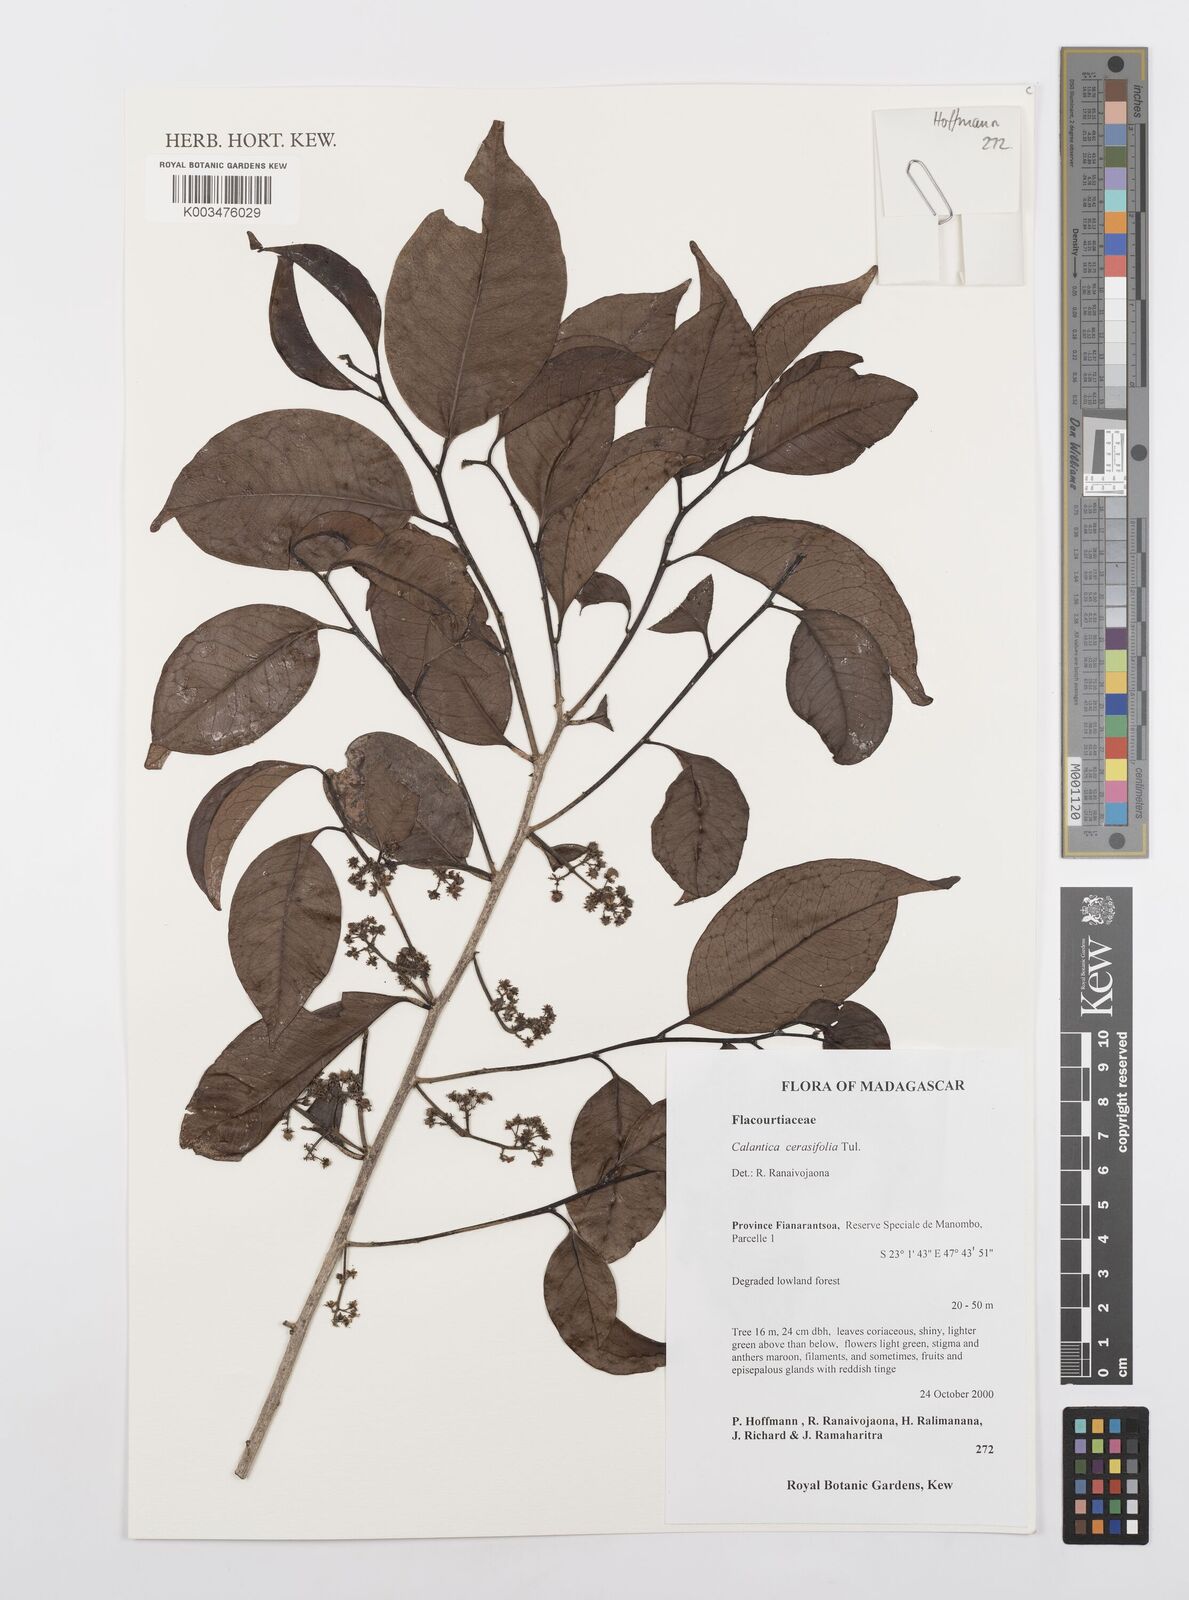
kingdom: Plantae
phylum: Tracheophyta
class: Magnoliopsida
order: Malpighiales
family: Salicaceae
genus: Calantica
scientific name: Calantica cerasifolia
